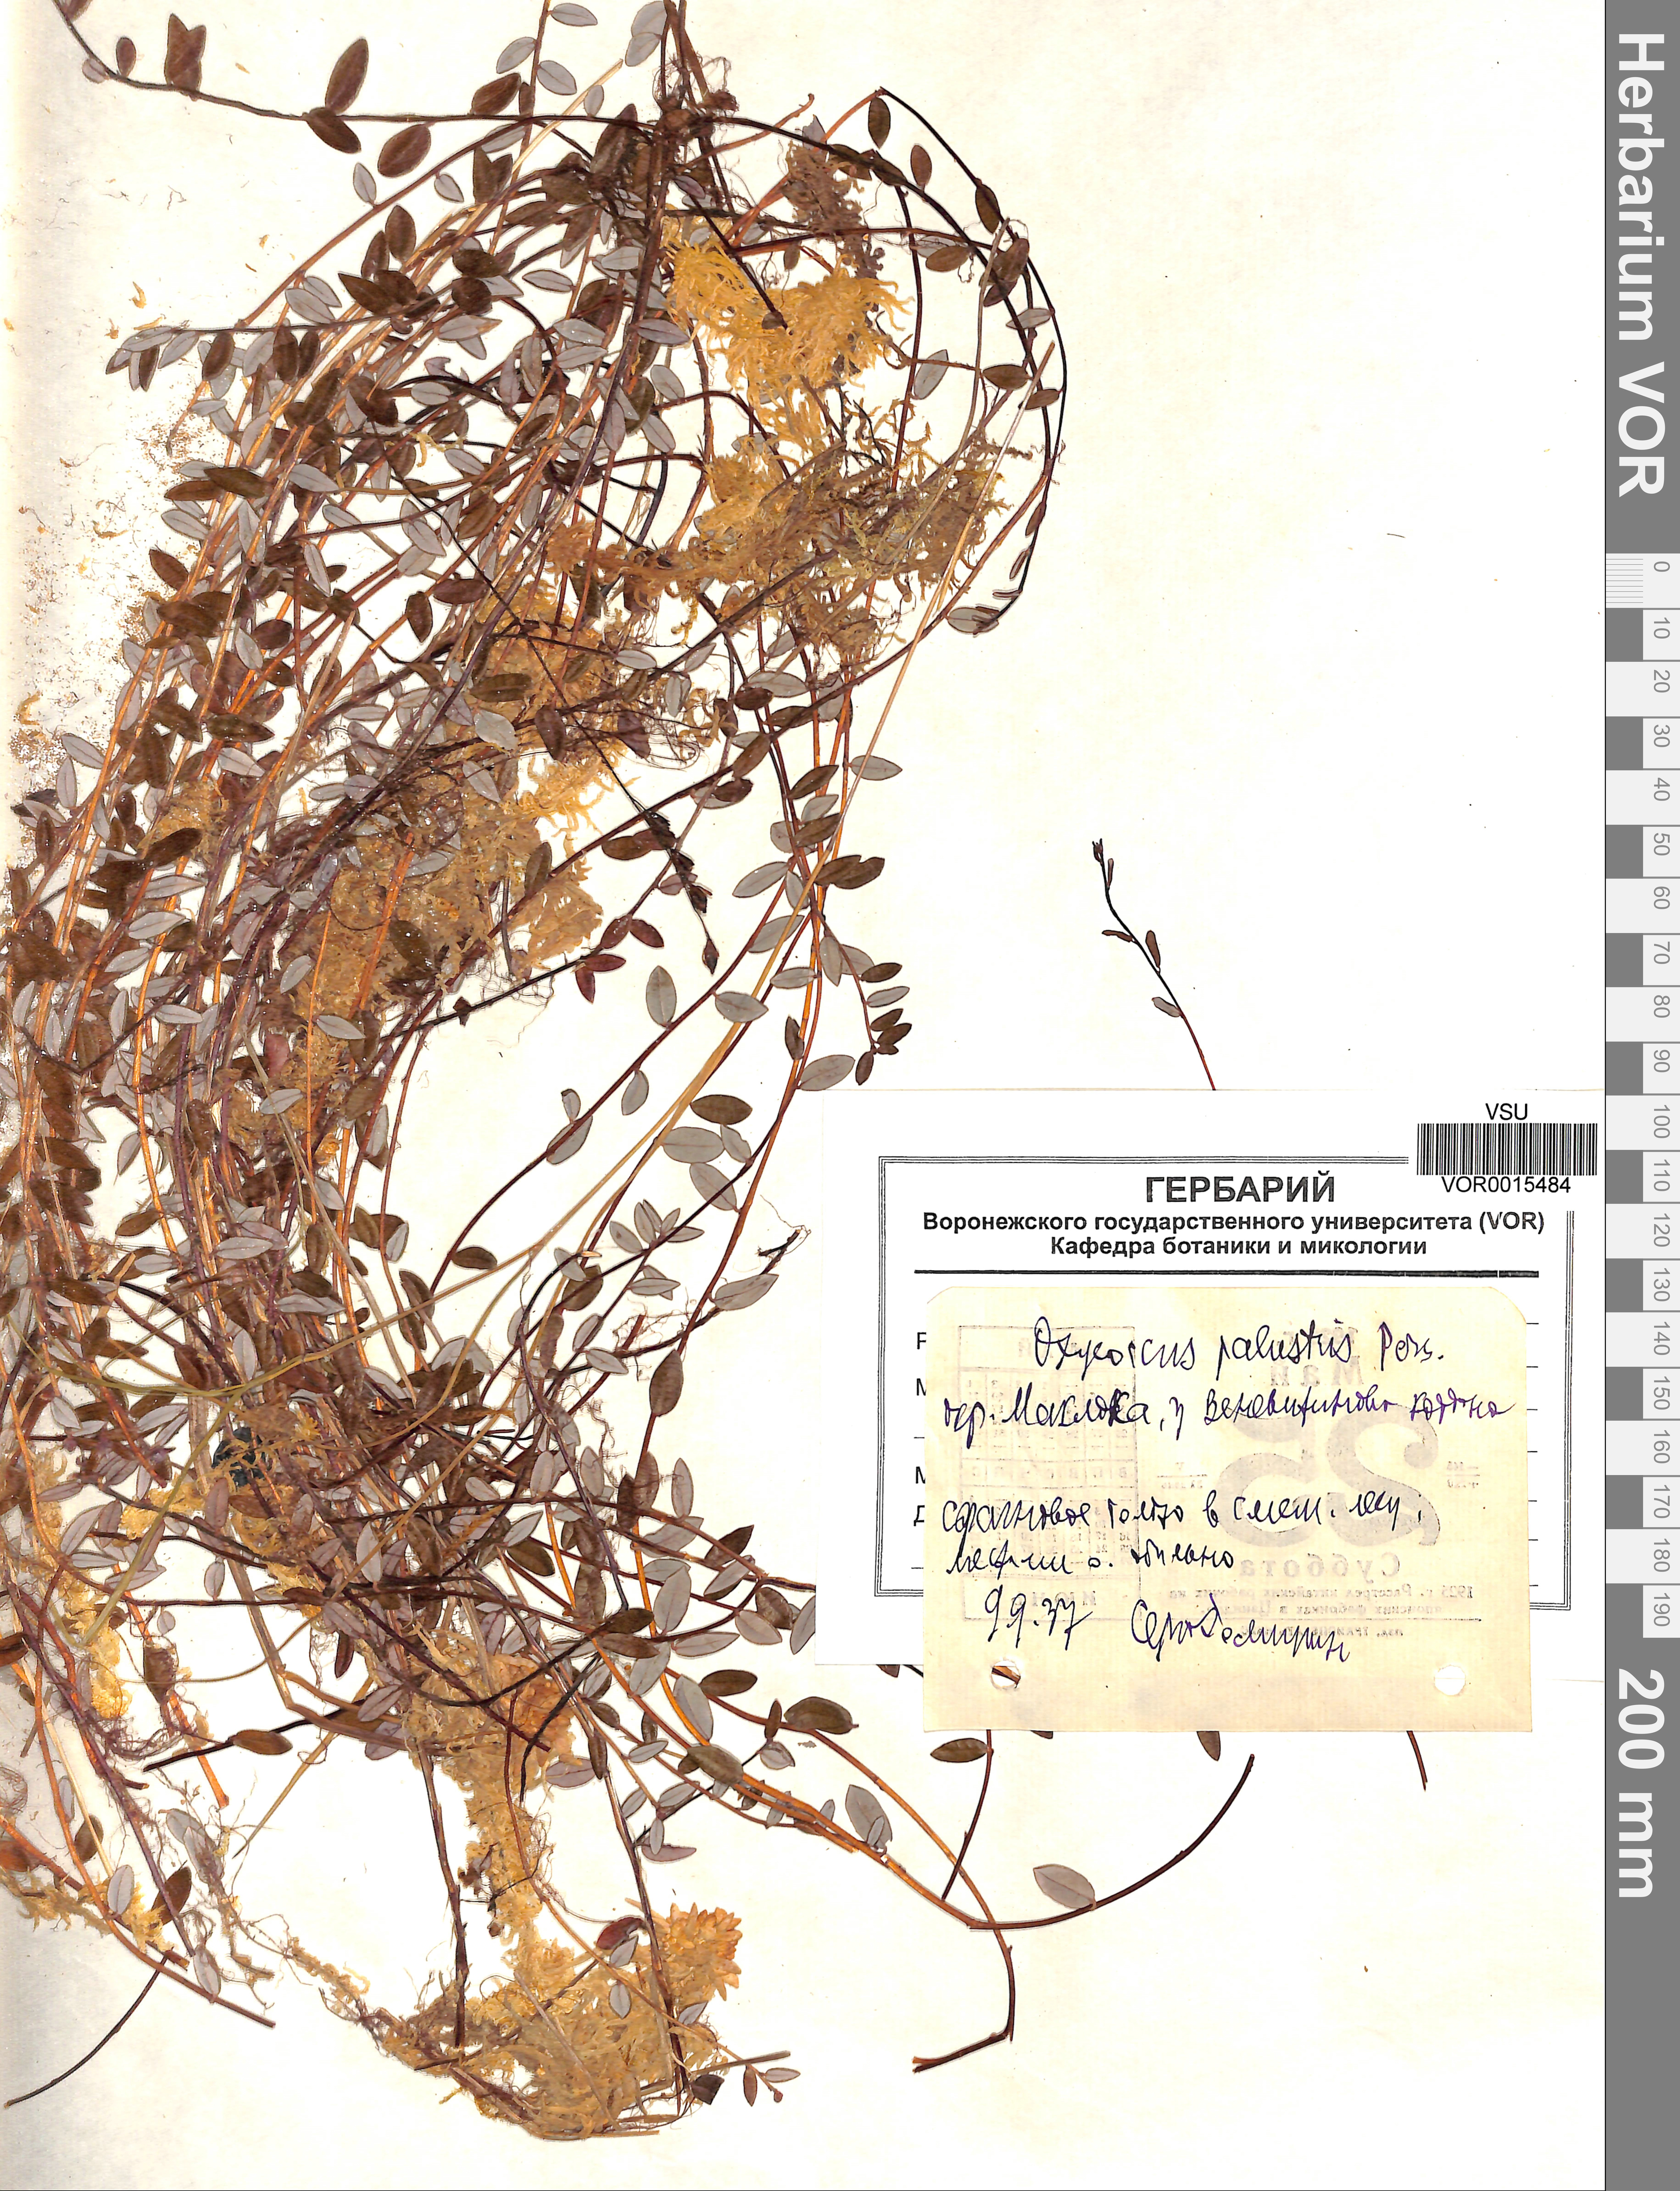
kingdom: Plantae
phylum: Tracheophyta
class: Magnoliopsida
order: Ericales
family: Ericaceae
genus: Vaccinium
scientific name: Vaccinium oxycoccos
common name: Cranberry
